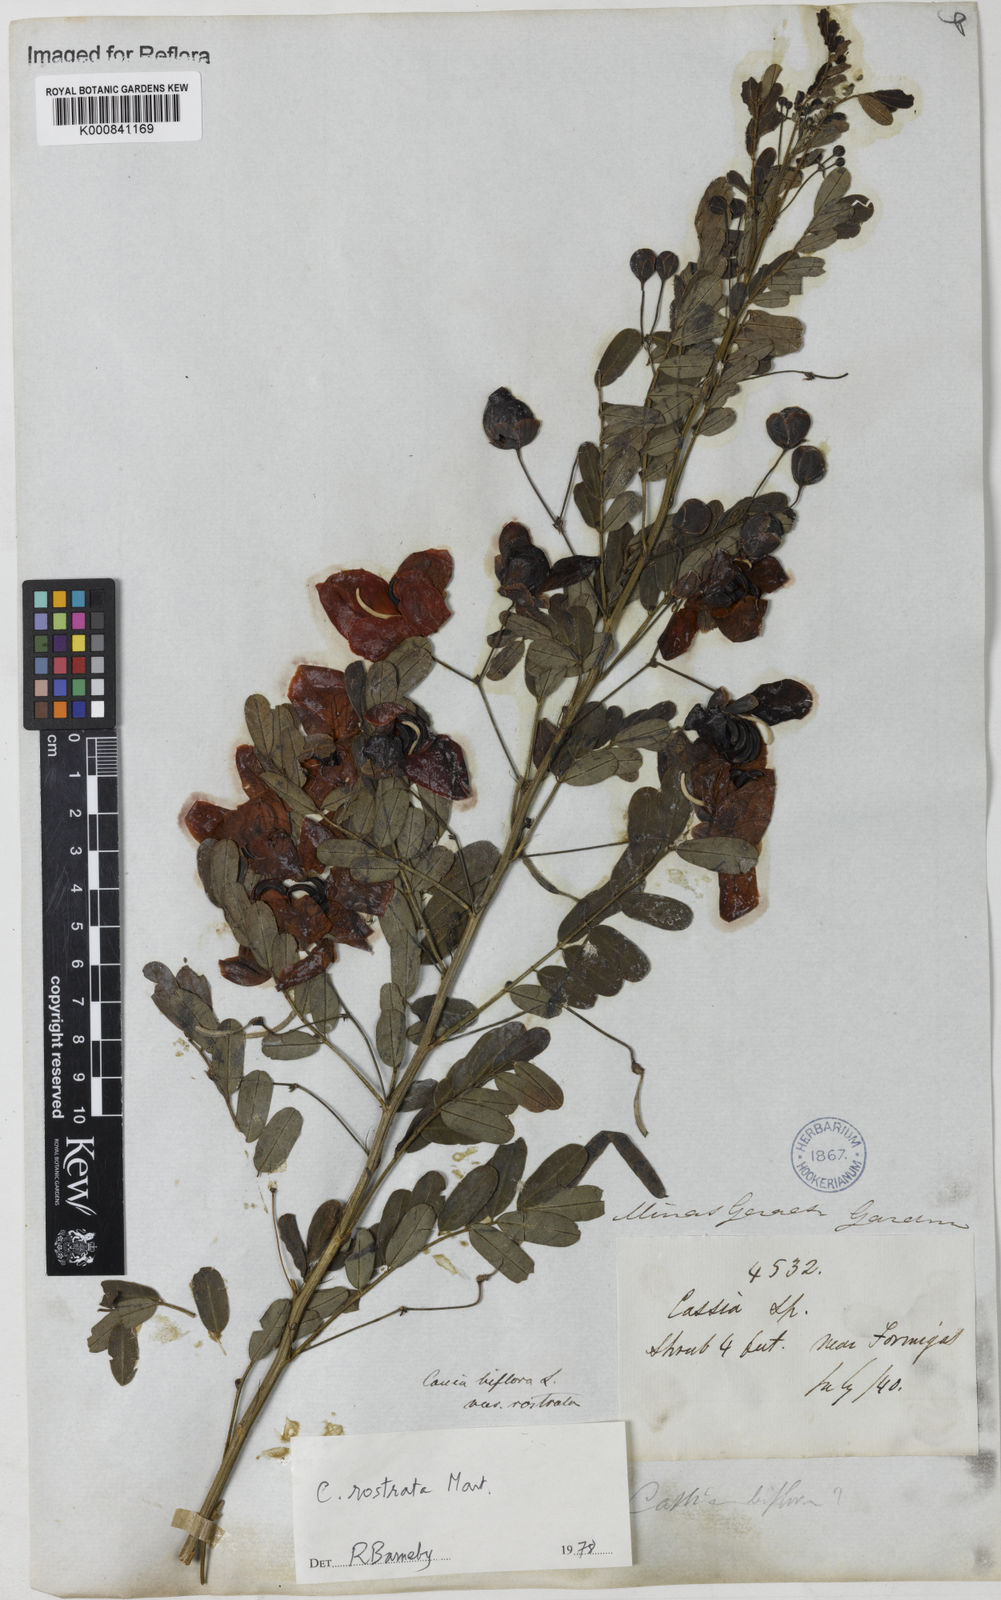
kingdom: Plantae
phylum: Tracheophyta
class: Magnoliopsida
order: Fabales
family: Fabaceae
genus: Senna
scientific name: Senna rostrata
